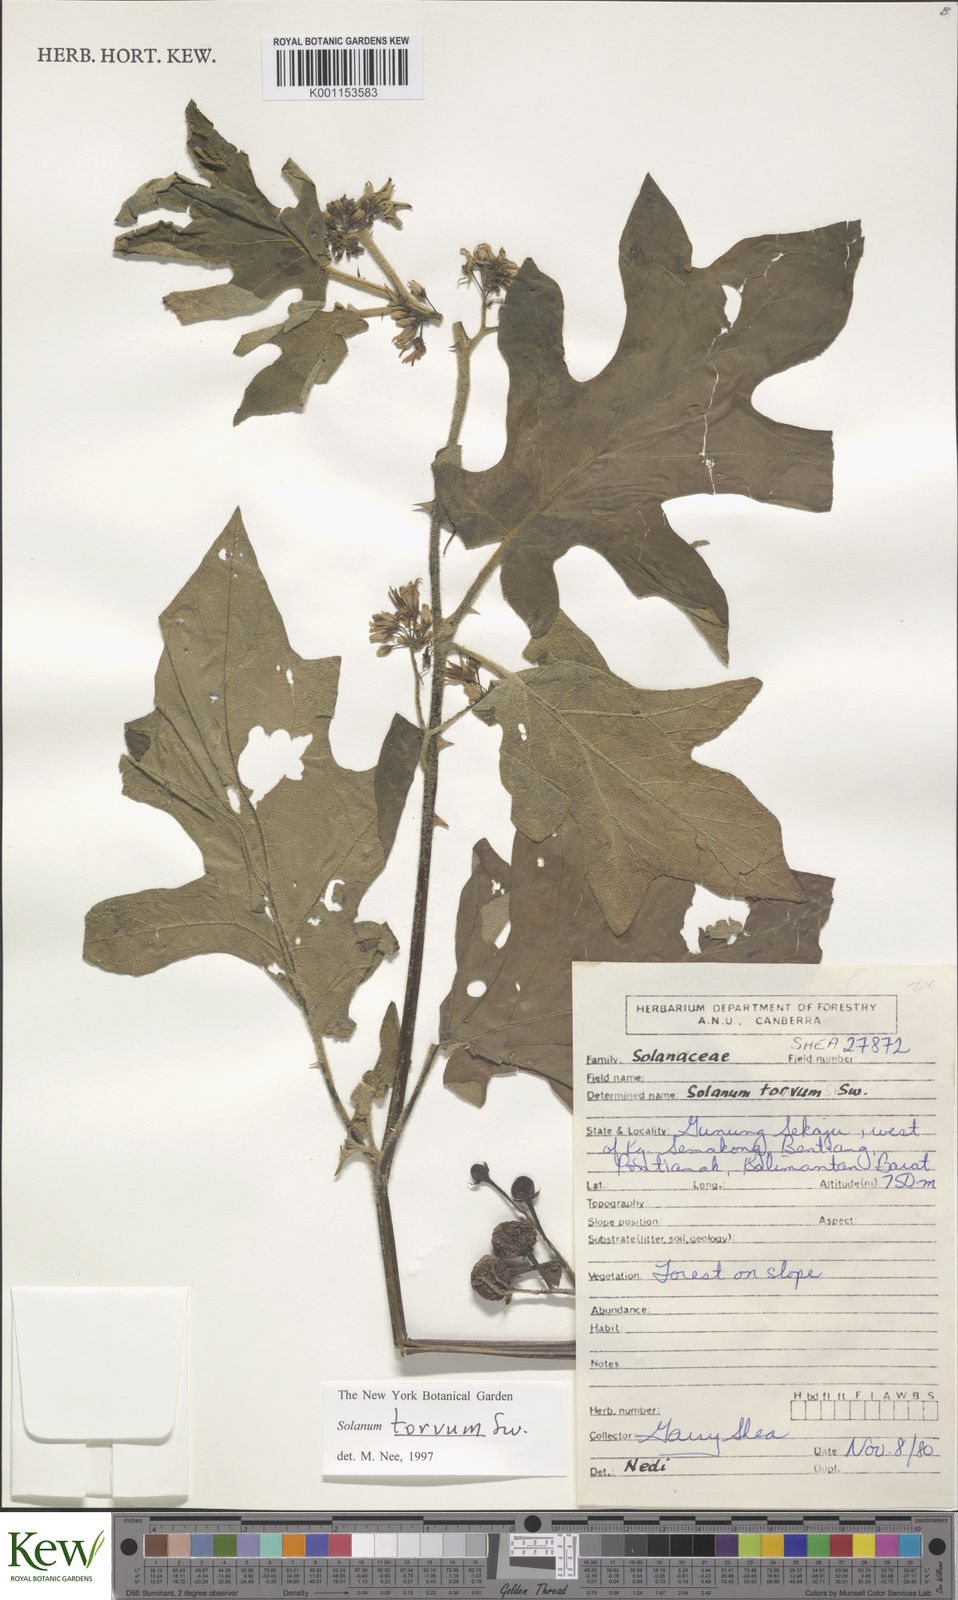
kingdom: Plantae
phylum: Tracheophyta
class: Magnoliopsida
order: Solanales
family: Solanaceae
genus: Solanum
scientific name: Solanum torvum
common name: Turkey berry
